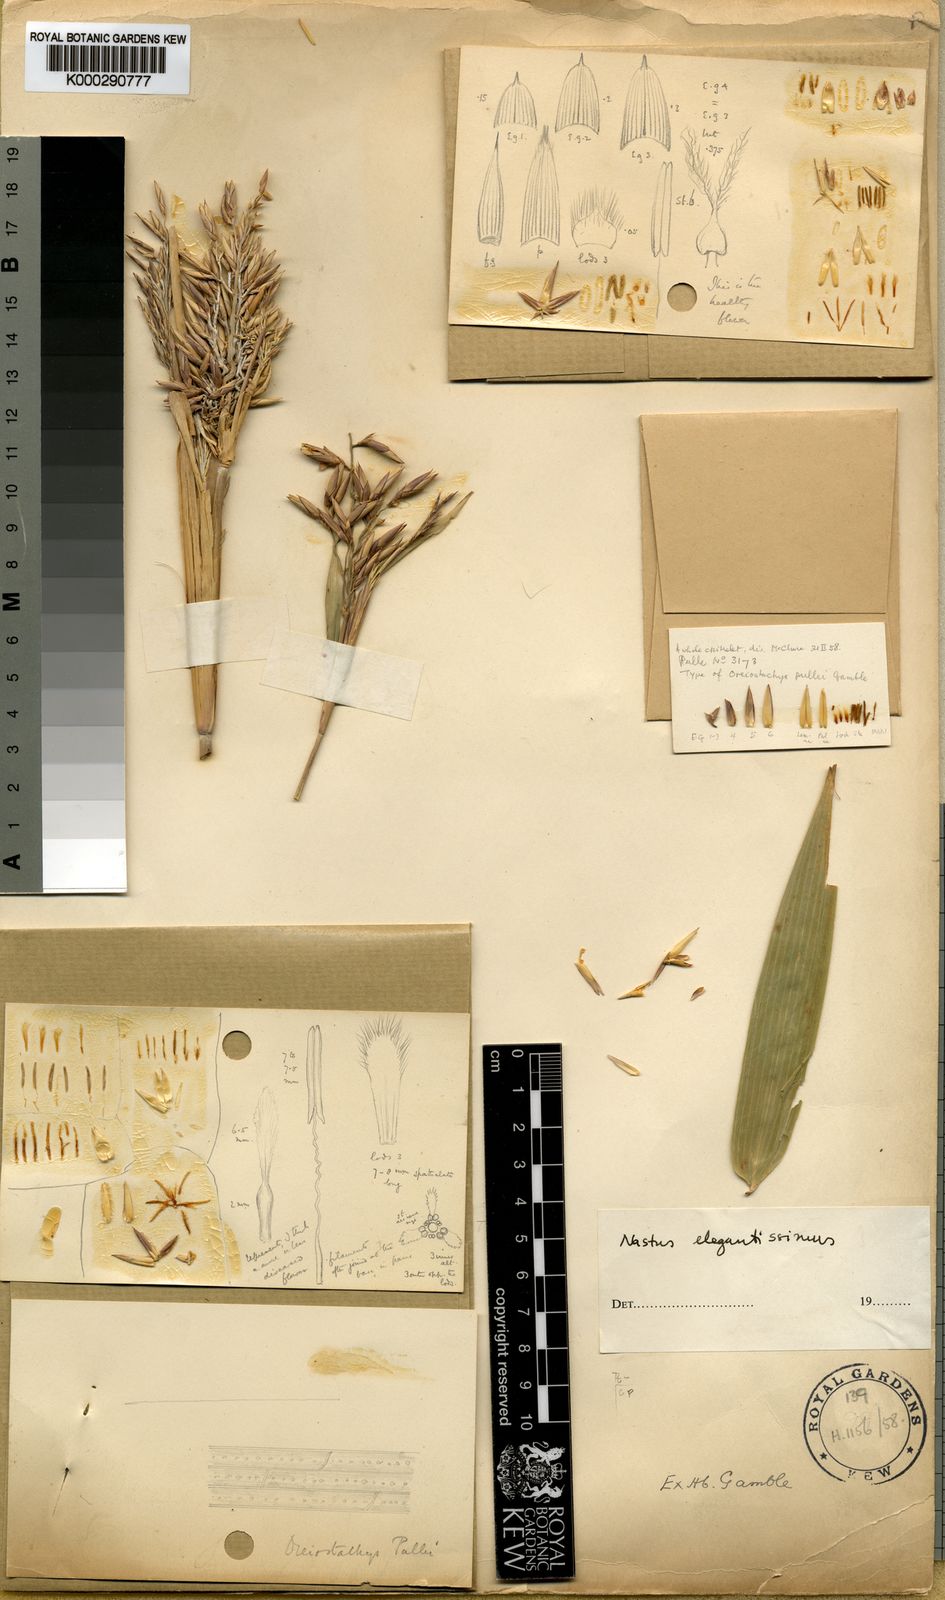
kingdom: Plantae
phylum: Tracheophyta
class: Liliopsida
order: Poales
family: Poaceae
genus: Chloothamnus
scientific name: Chloothamnus elegantissimus
